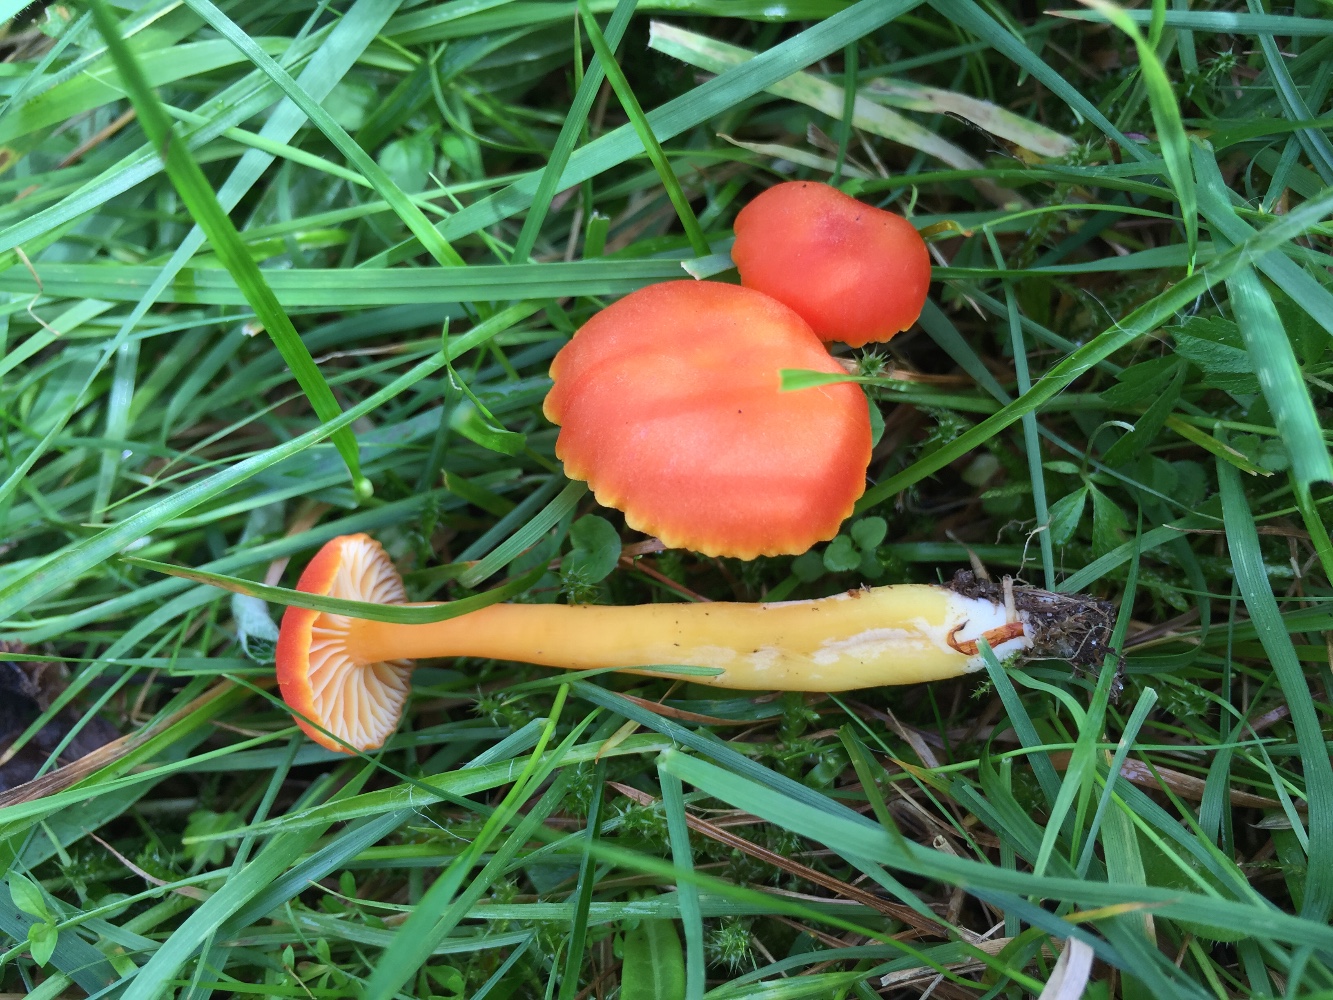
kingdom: Fungi
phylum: Basidiomycota
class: Agaricomycetes
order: Agaricales
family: Hygrophoraceae
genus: Hygrocybe
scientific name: Hygrocybe reidii
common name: honning-vokshat
